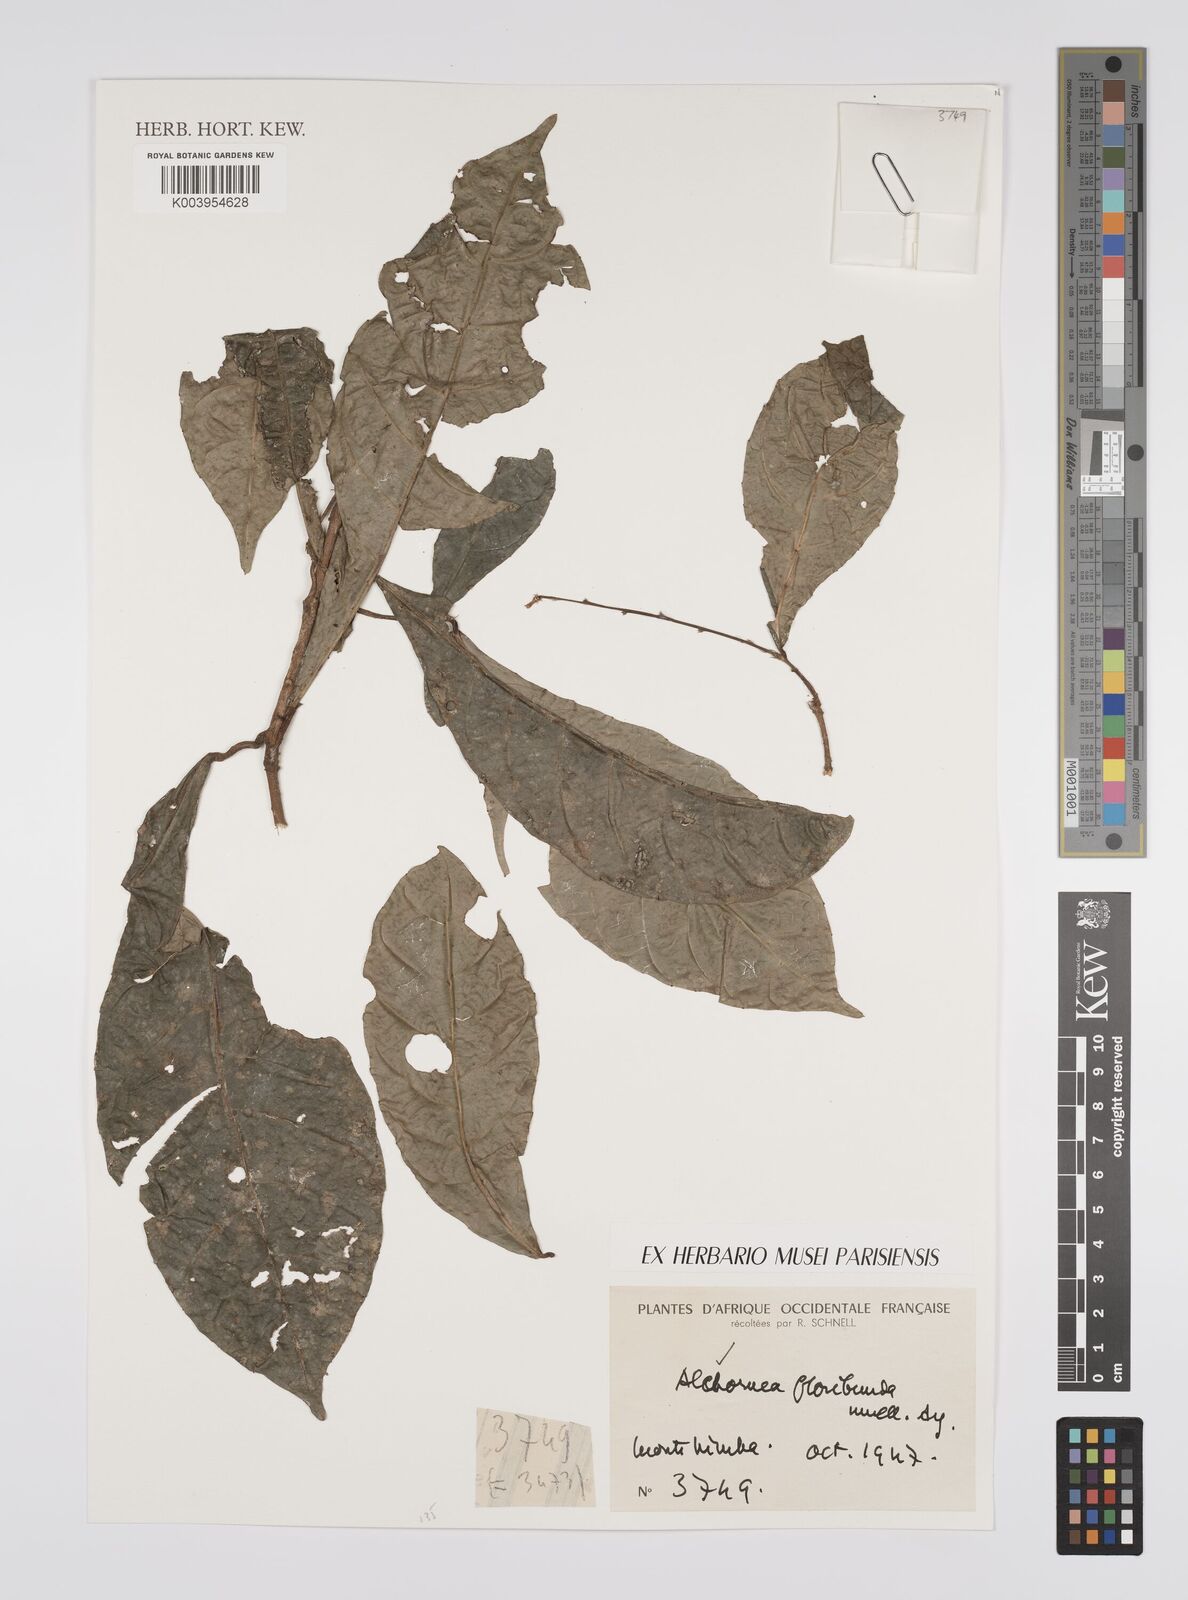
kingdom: Plantae
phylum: Tracheophyta
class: Magnoliopsida
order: Malpighiales
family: Euphorbiaceae
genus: Alchornea
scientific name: Alchornea floribunda
